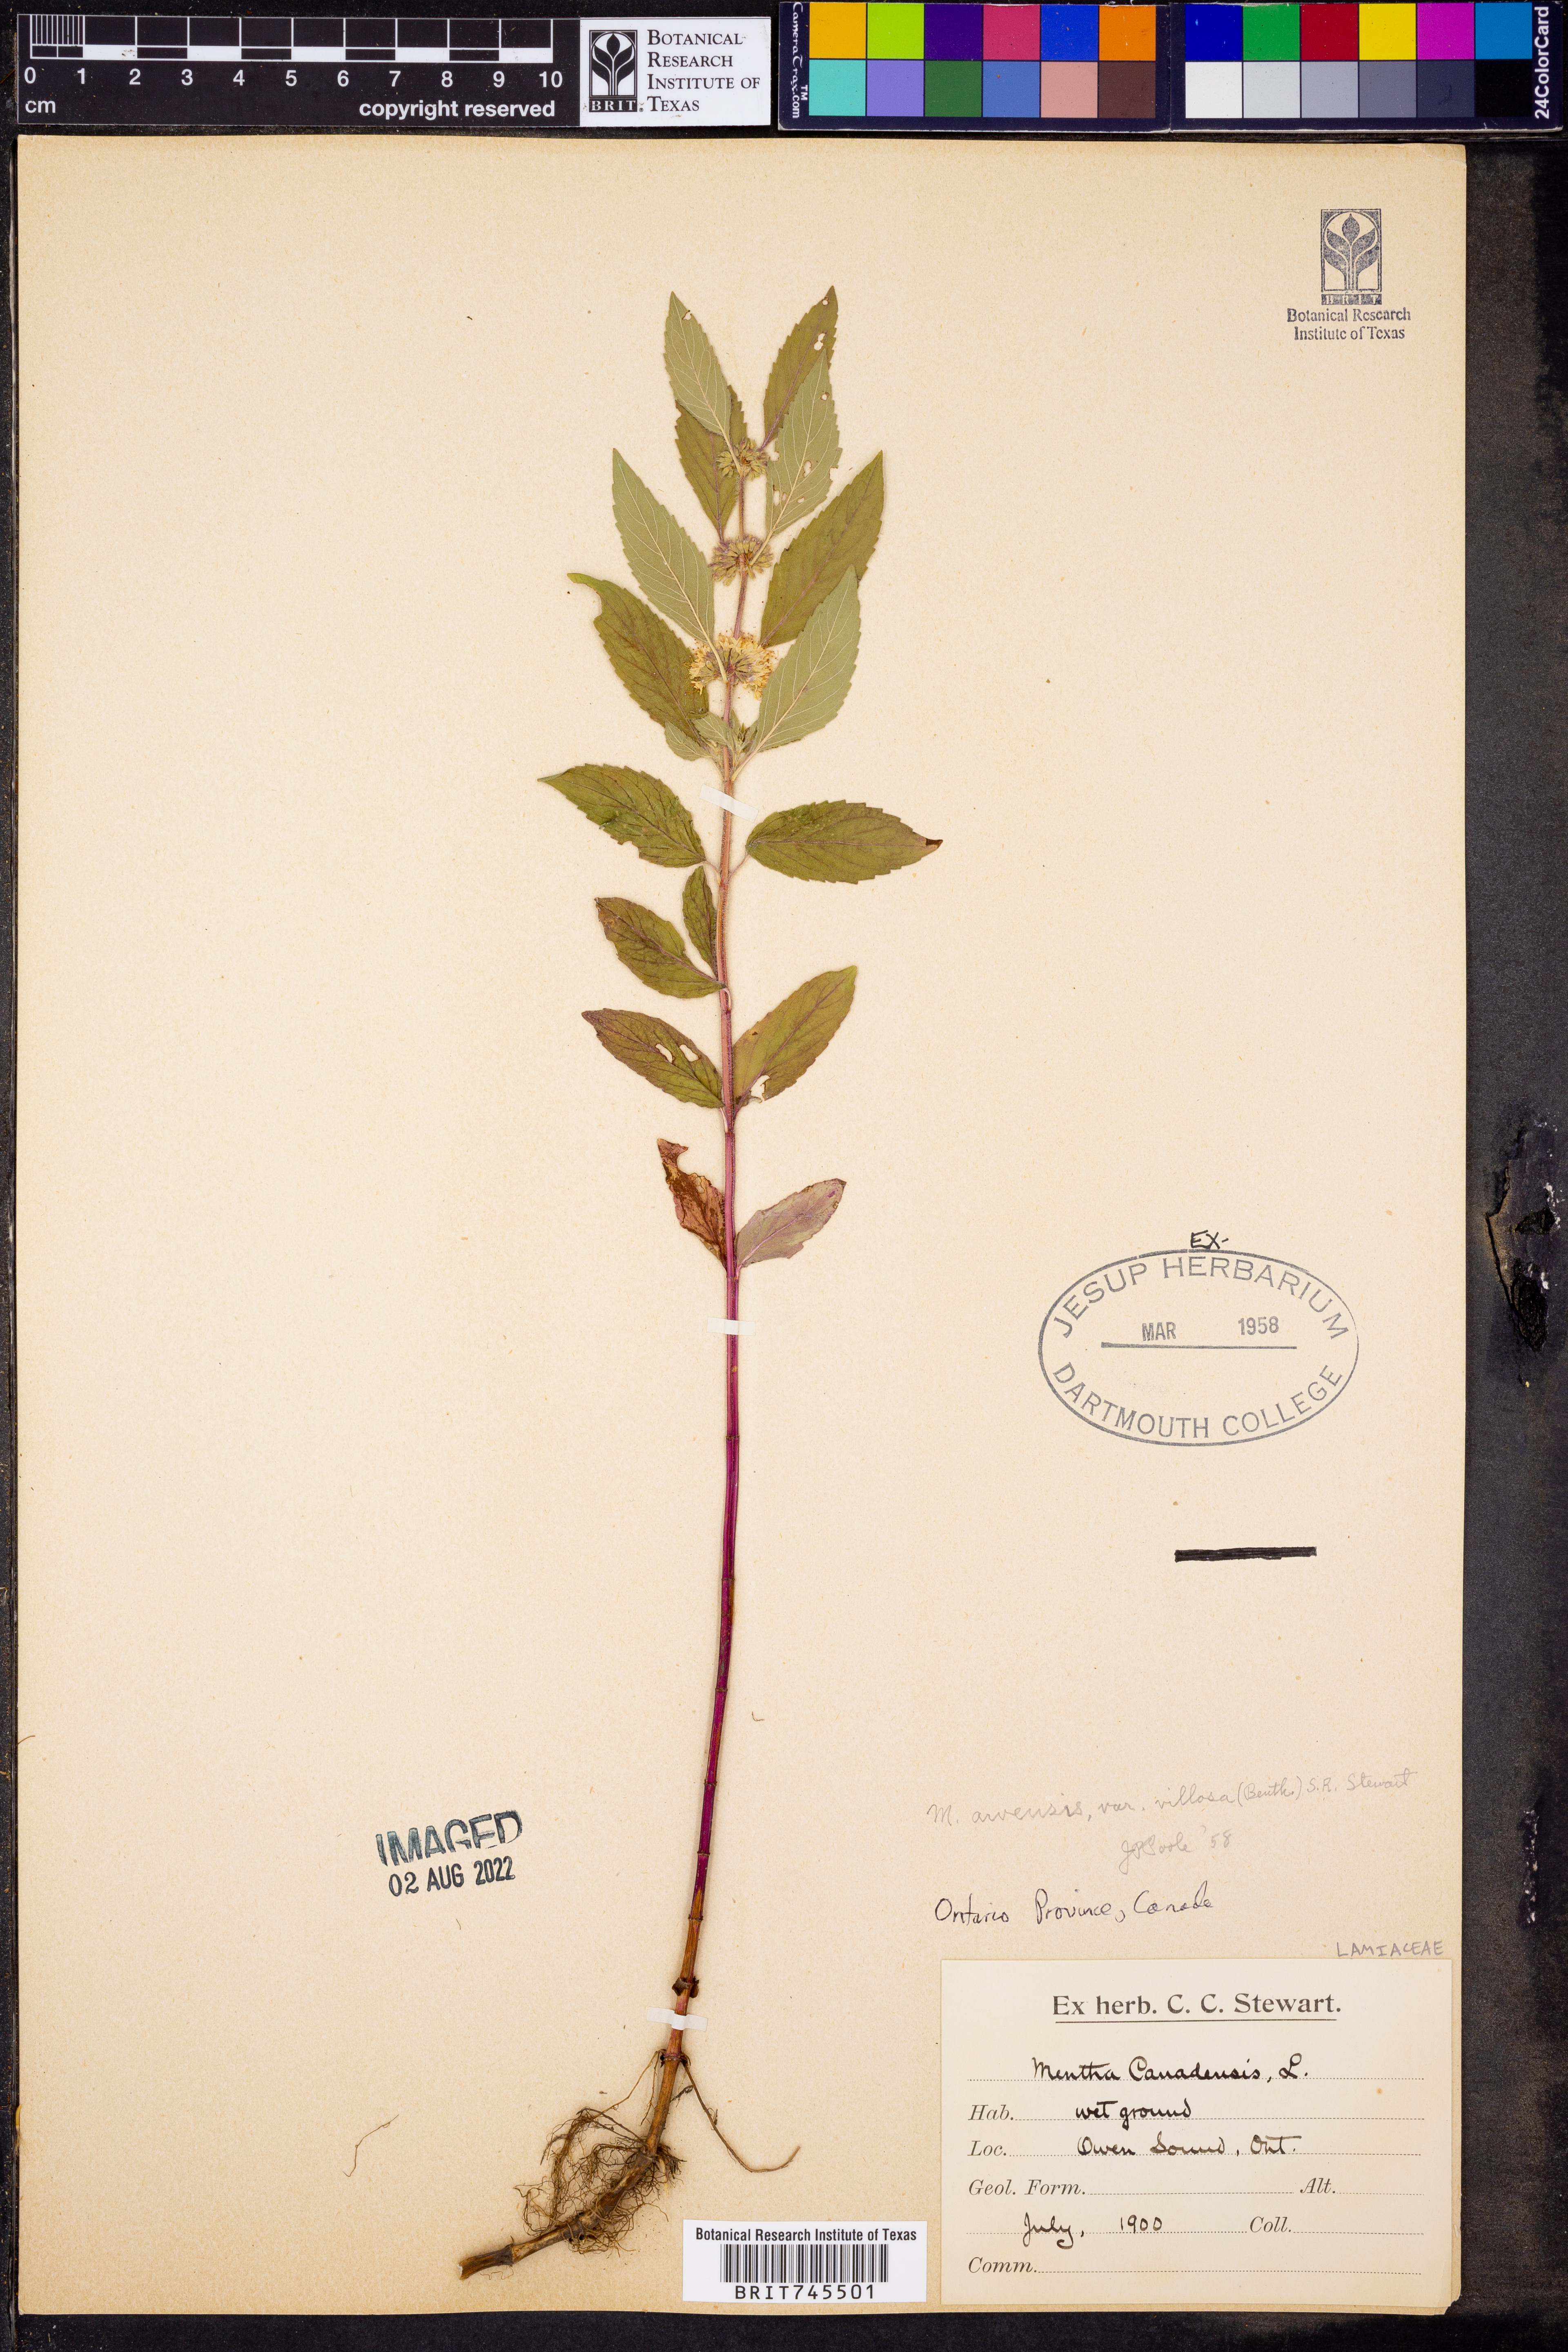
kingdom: Plantae
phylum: Tracheophyta
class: Magnoliopsida
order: Lamiales
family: Lamiaceae
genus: Mentha
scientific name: Mentha arvensis
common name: Corn mint
